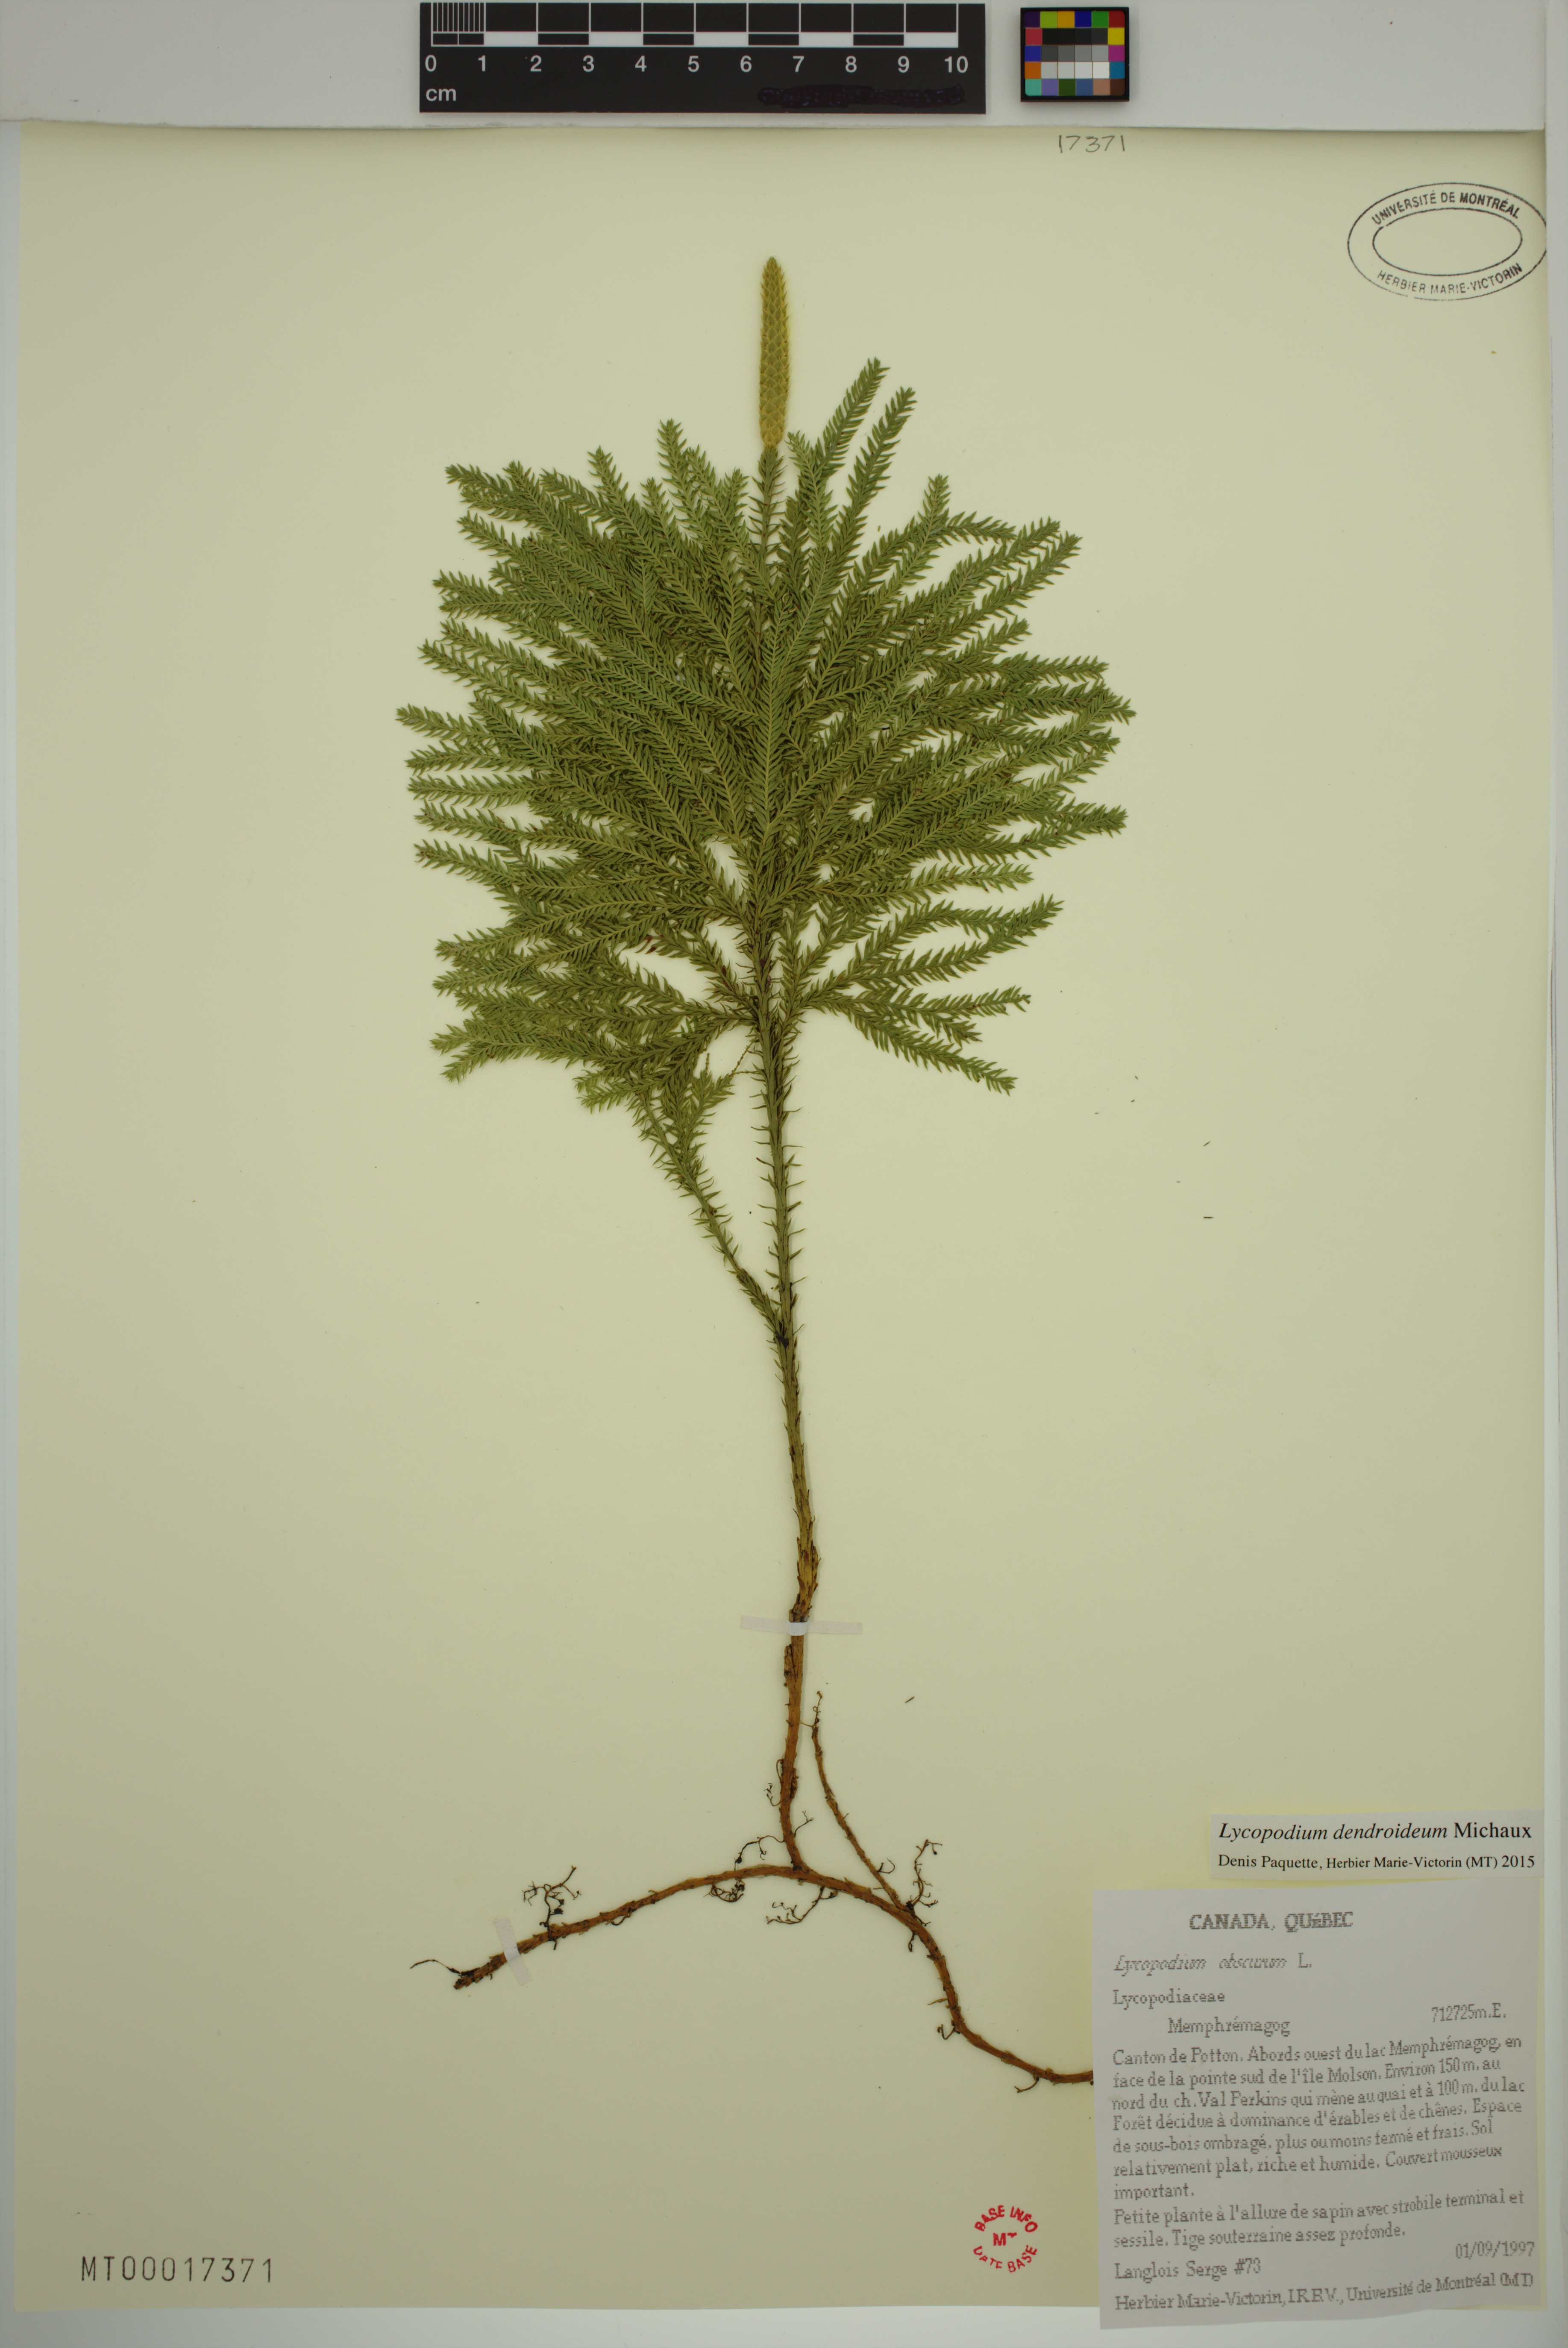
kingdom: Plantae
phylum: Tracheophyta
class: Lycopodiopsida
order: Lycopodiales
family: Lycopodiaceae
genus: Dendrolycopodium
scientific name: Dendrolycopodium dendroideum
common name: Northern tree-clubmoss
